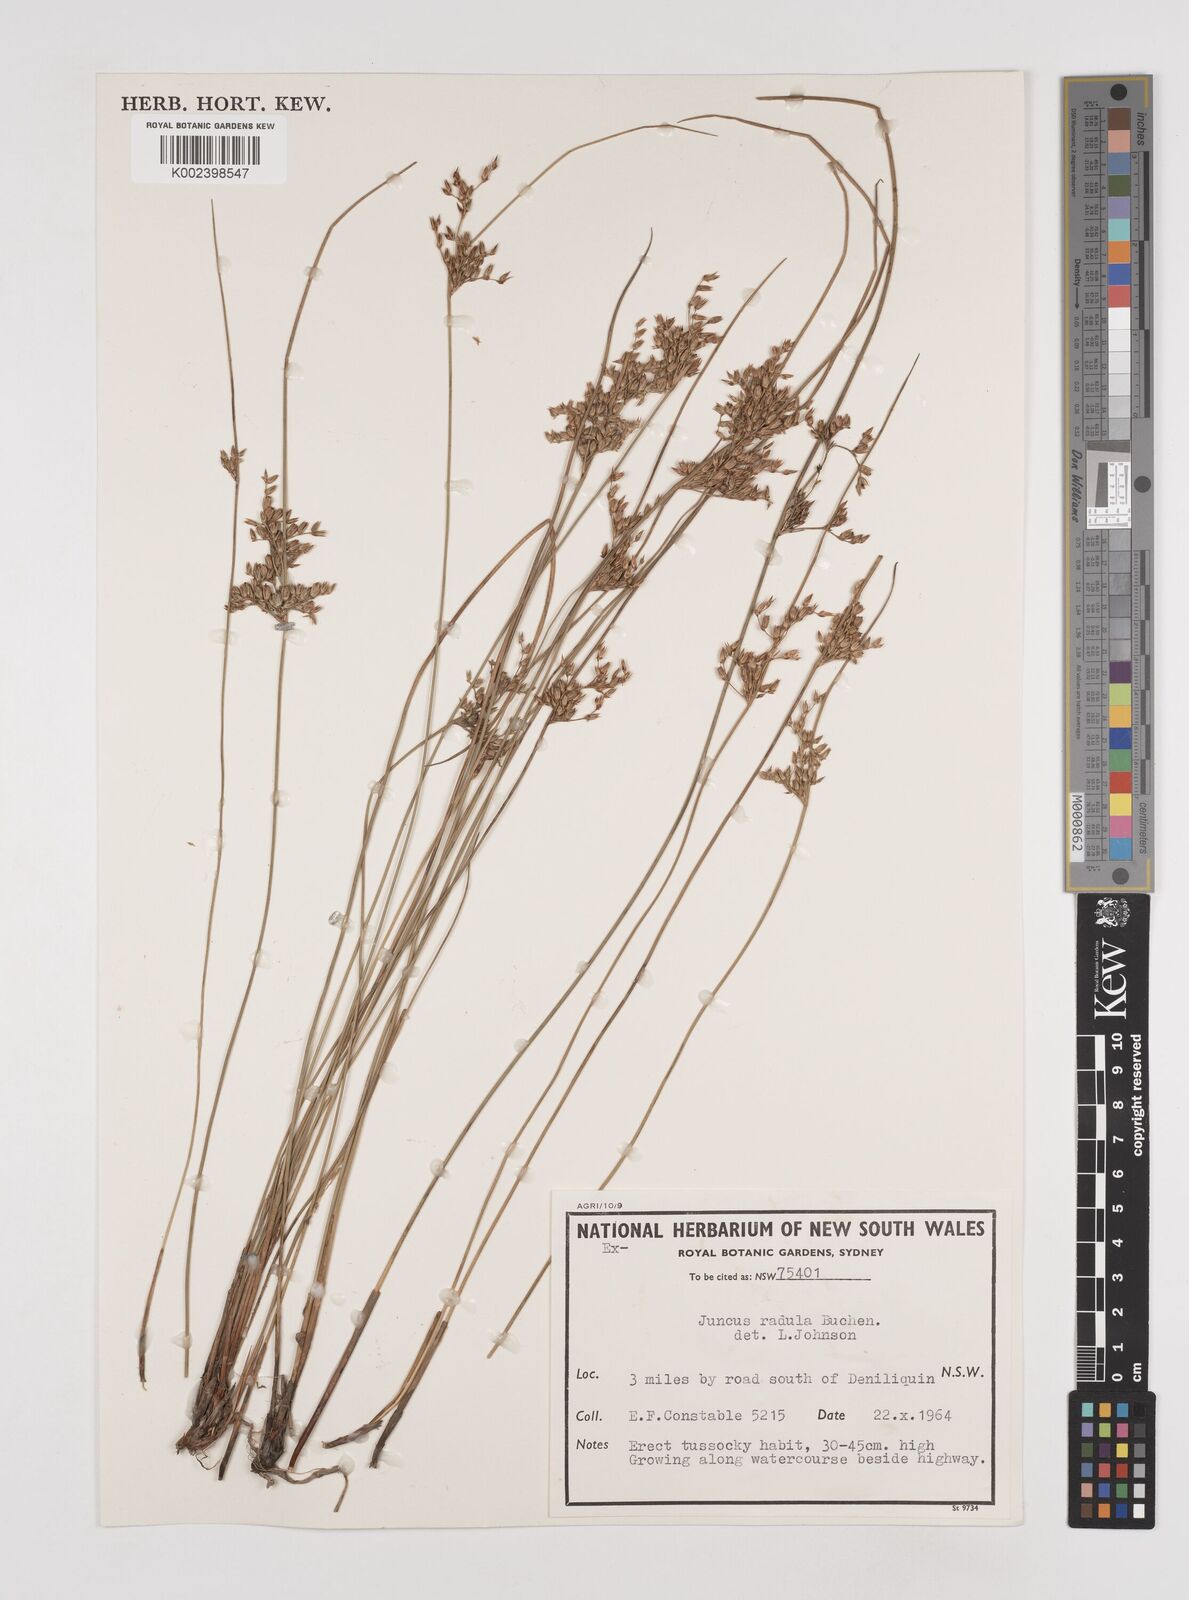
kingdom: Plantae
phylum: Tracheophyta
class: Liliopsida
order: Poales
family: Juncaceae
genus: Juncus
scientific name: Juncus radula
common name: Hoary rush
